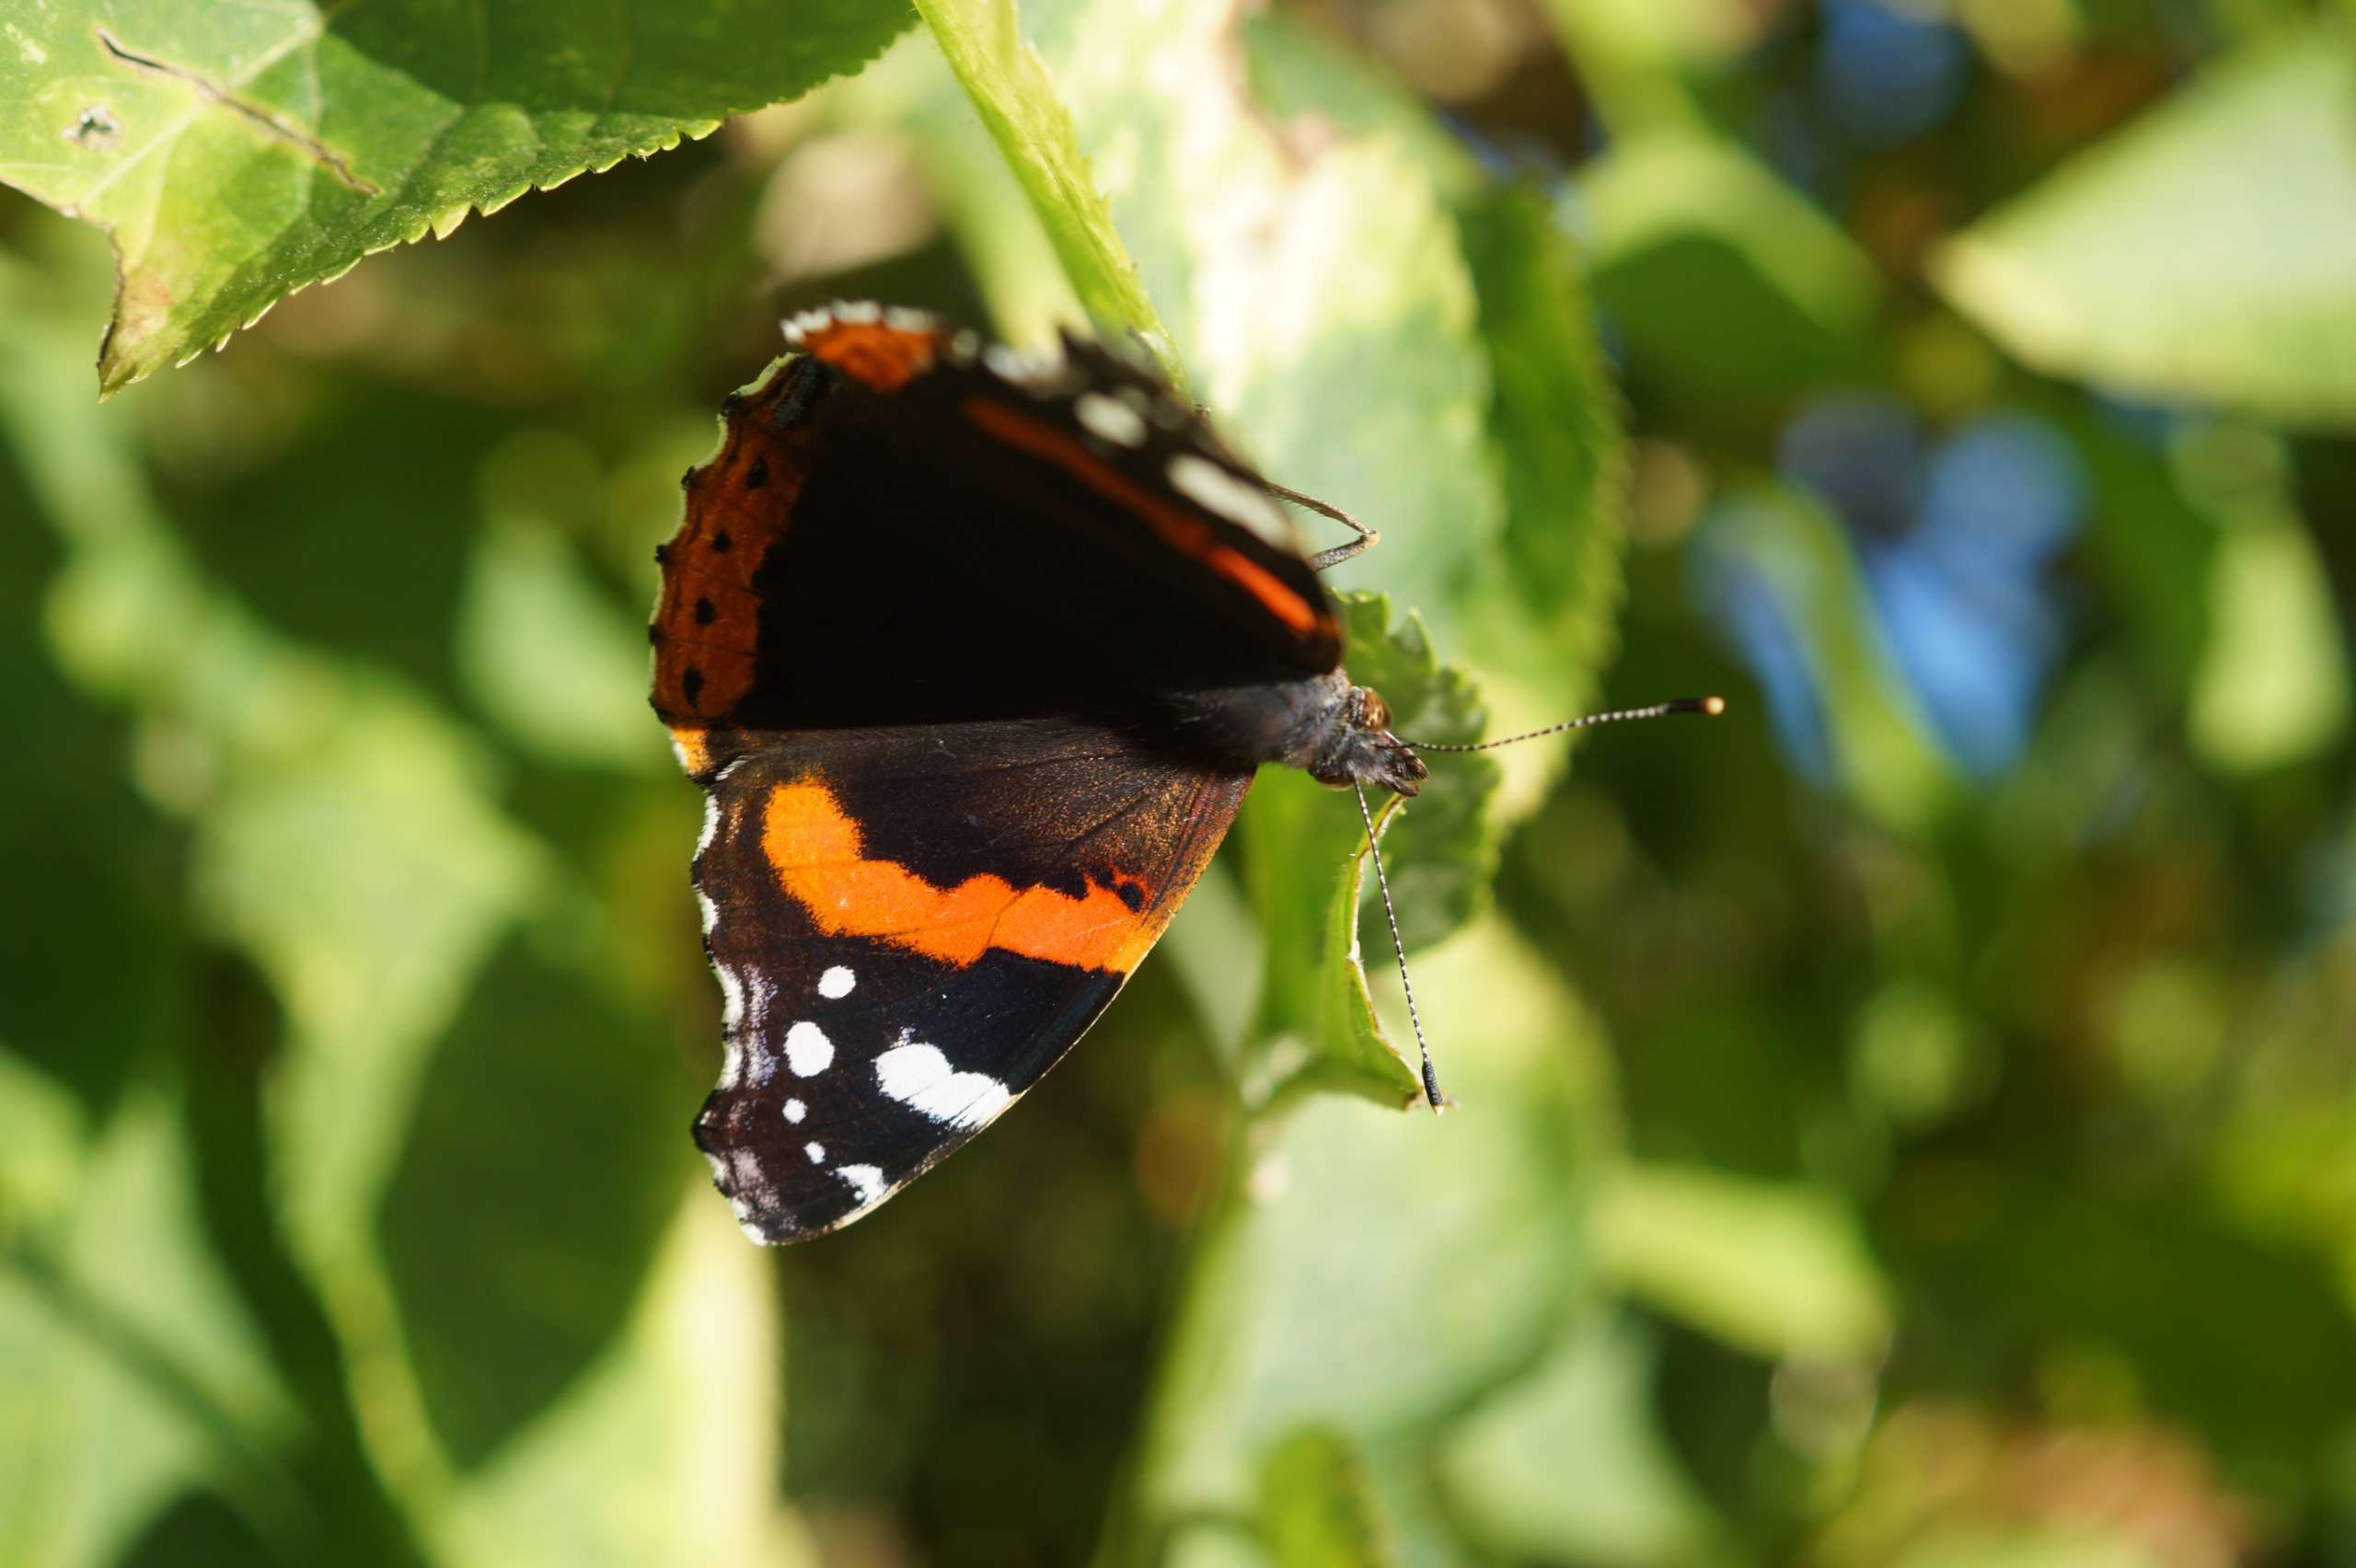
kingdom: Animalia
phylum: Arthropoda
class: Insecta
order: Lepidoptera
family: Nymphalidae
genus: Vanessa
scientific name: Vanessa atalanta
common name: Admiral
